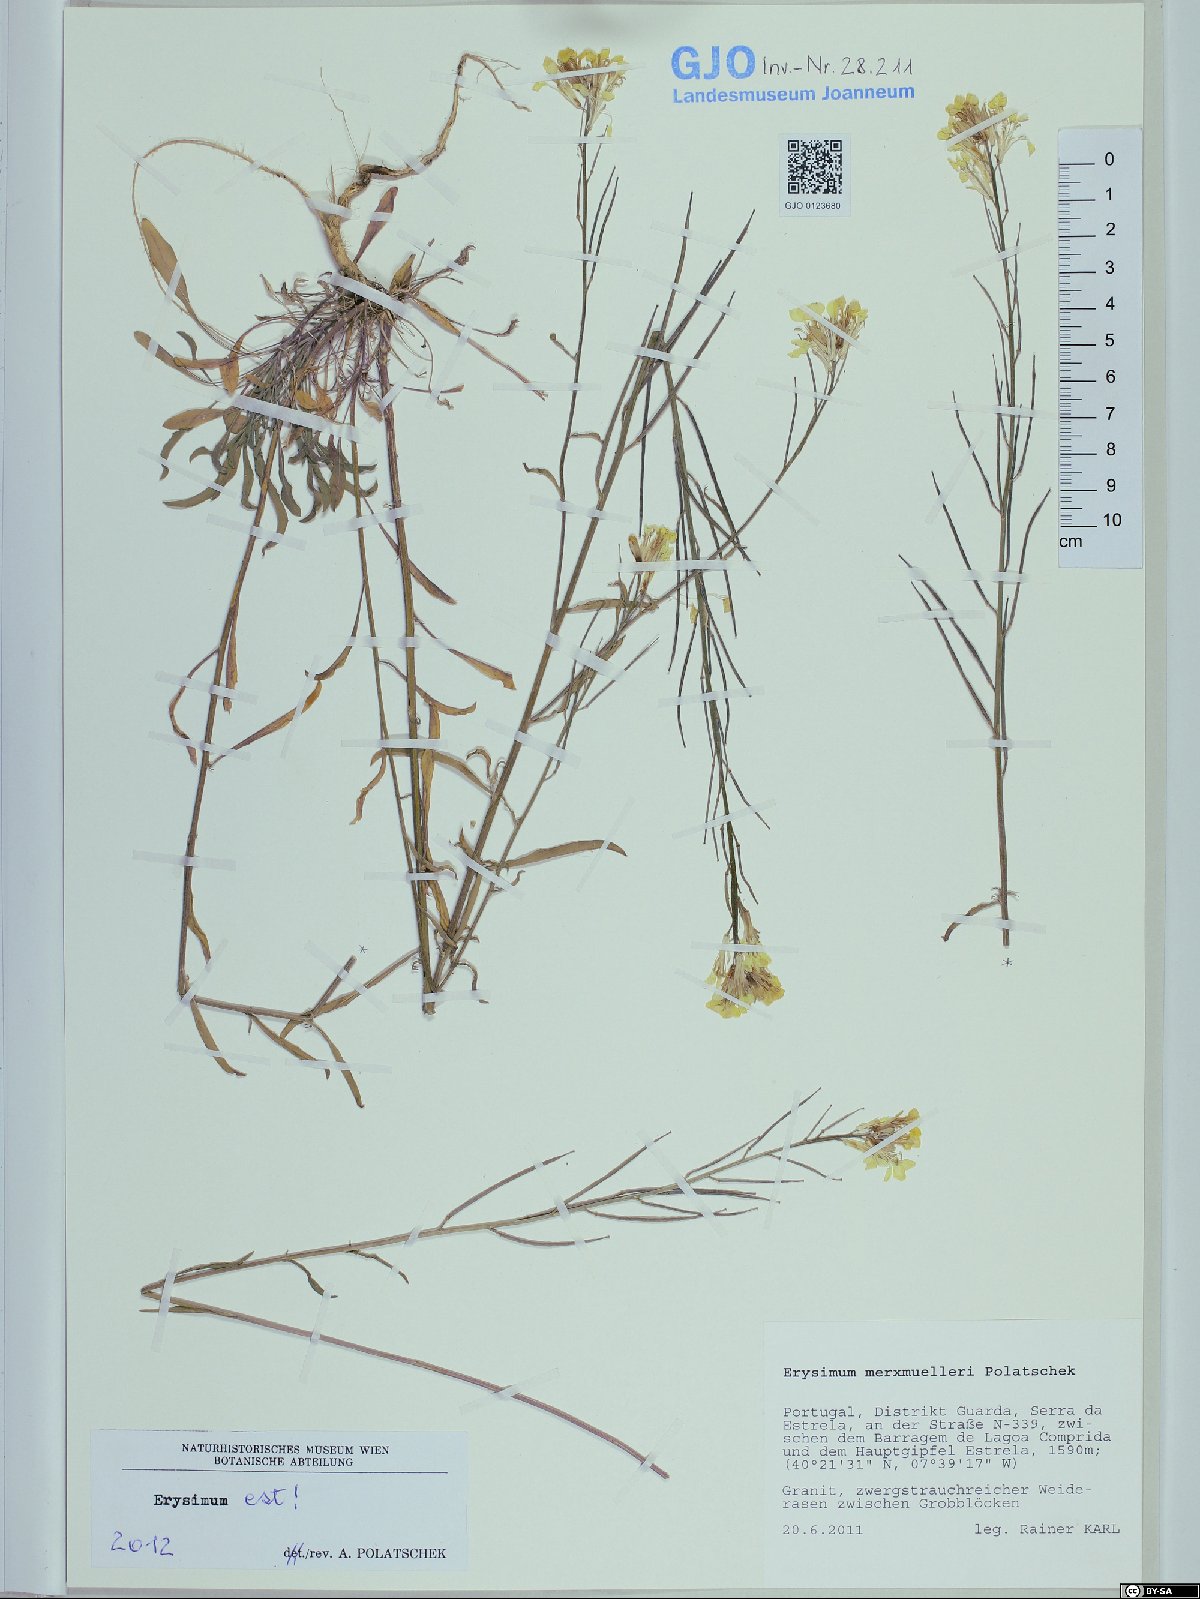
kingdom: Plantae
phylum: Tracheophyta
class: Magnoliopsida
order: Brassicales
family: Brassicaceae
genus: Erysimum
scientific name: Erysimum nevadense
